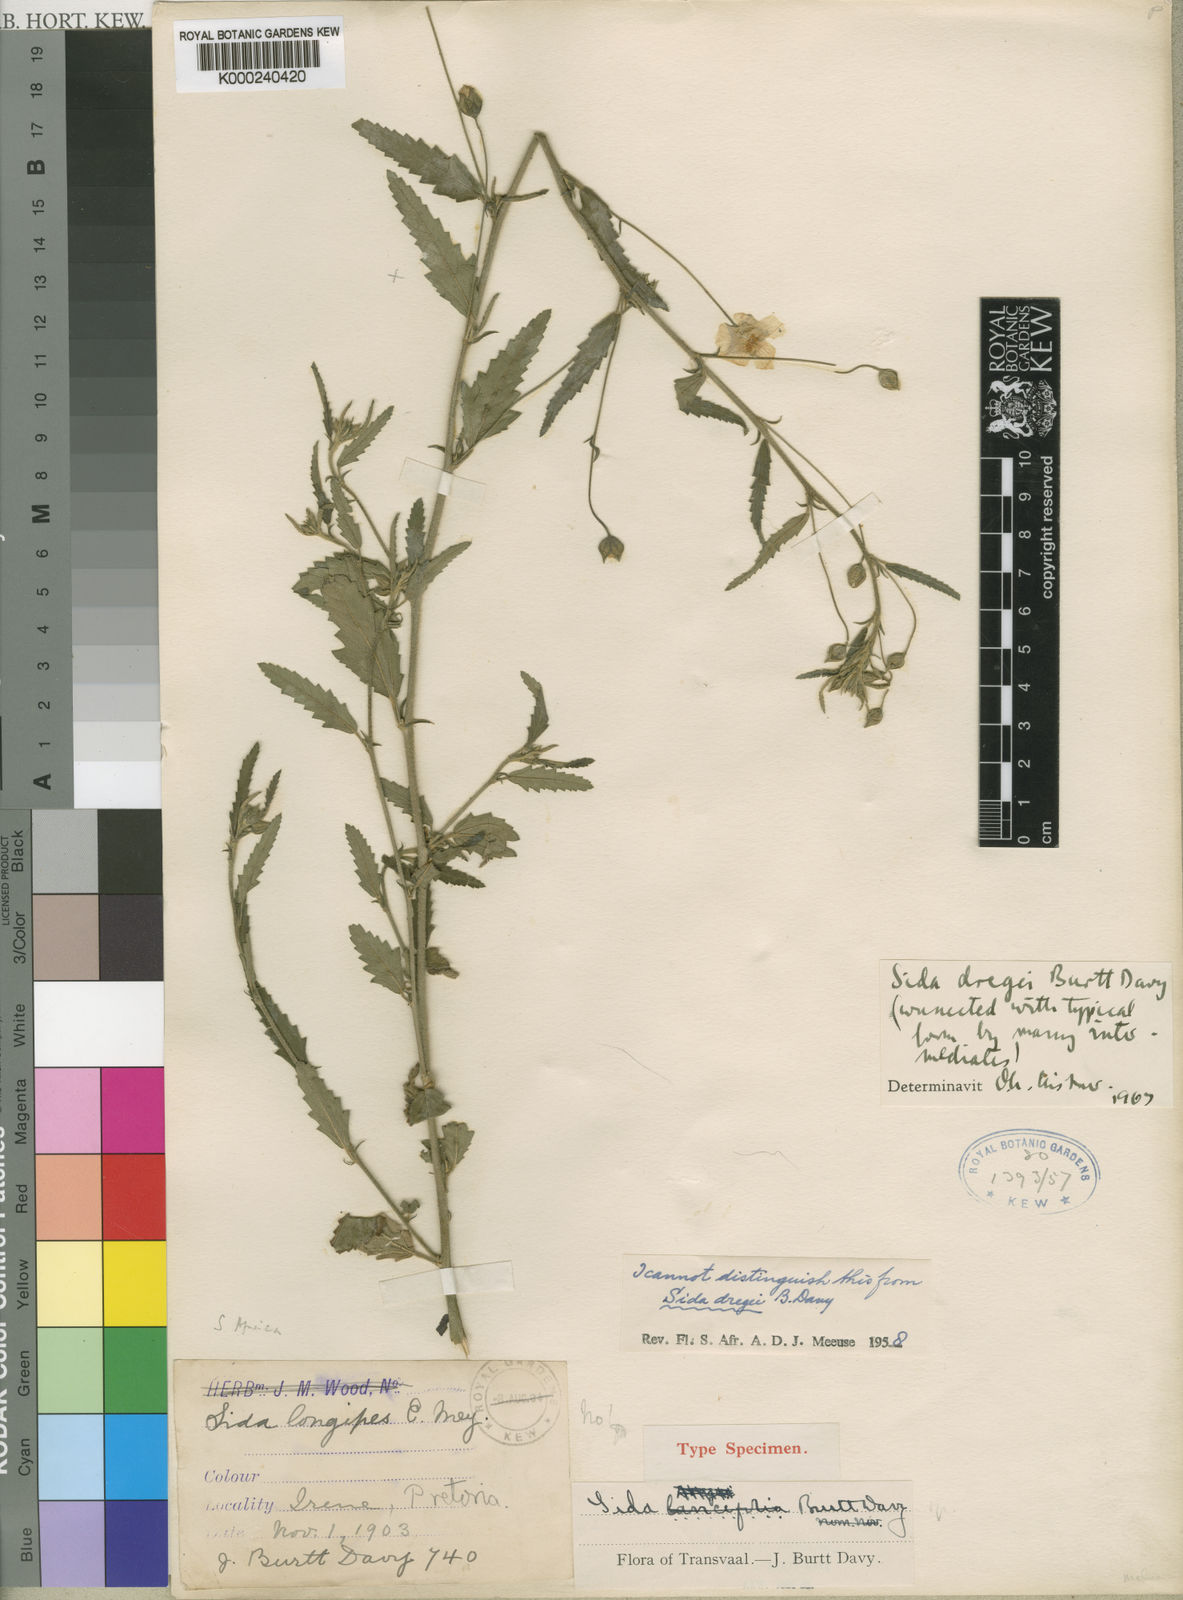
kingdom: Plantae
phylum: Tracheophyta
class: Magnoliopsida
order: Malvales
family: Malvaceae
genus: Sida
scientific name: Sida lancifolia
